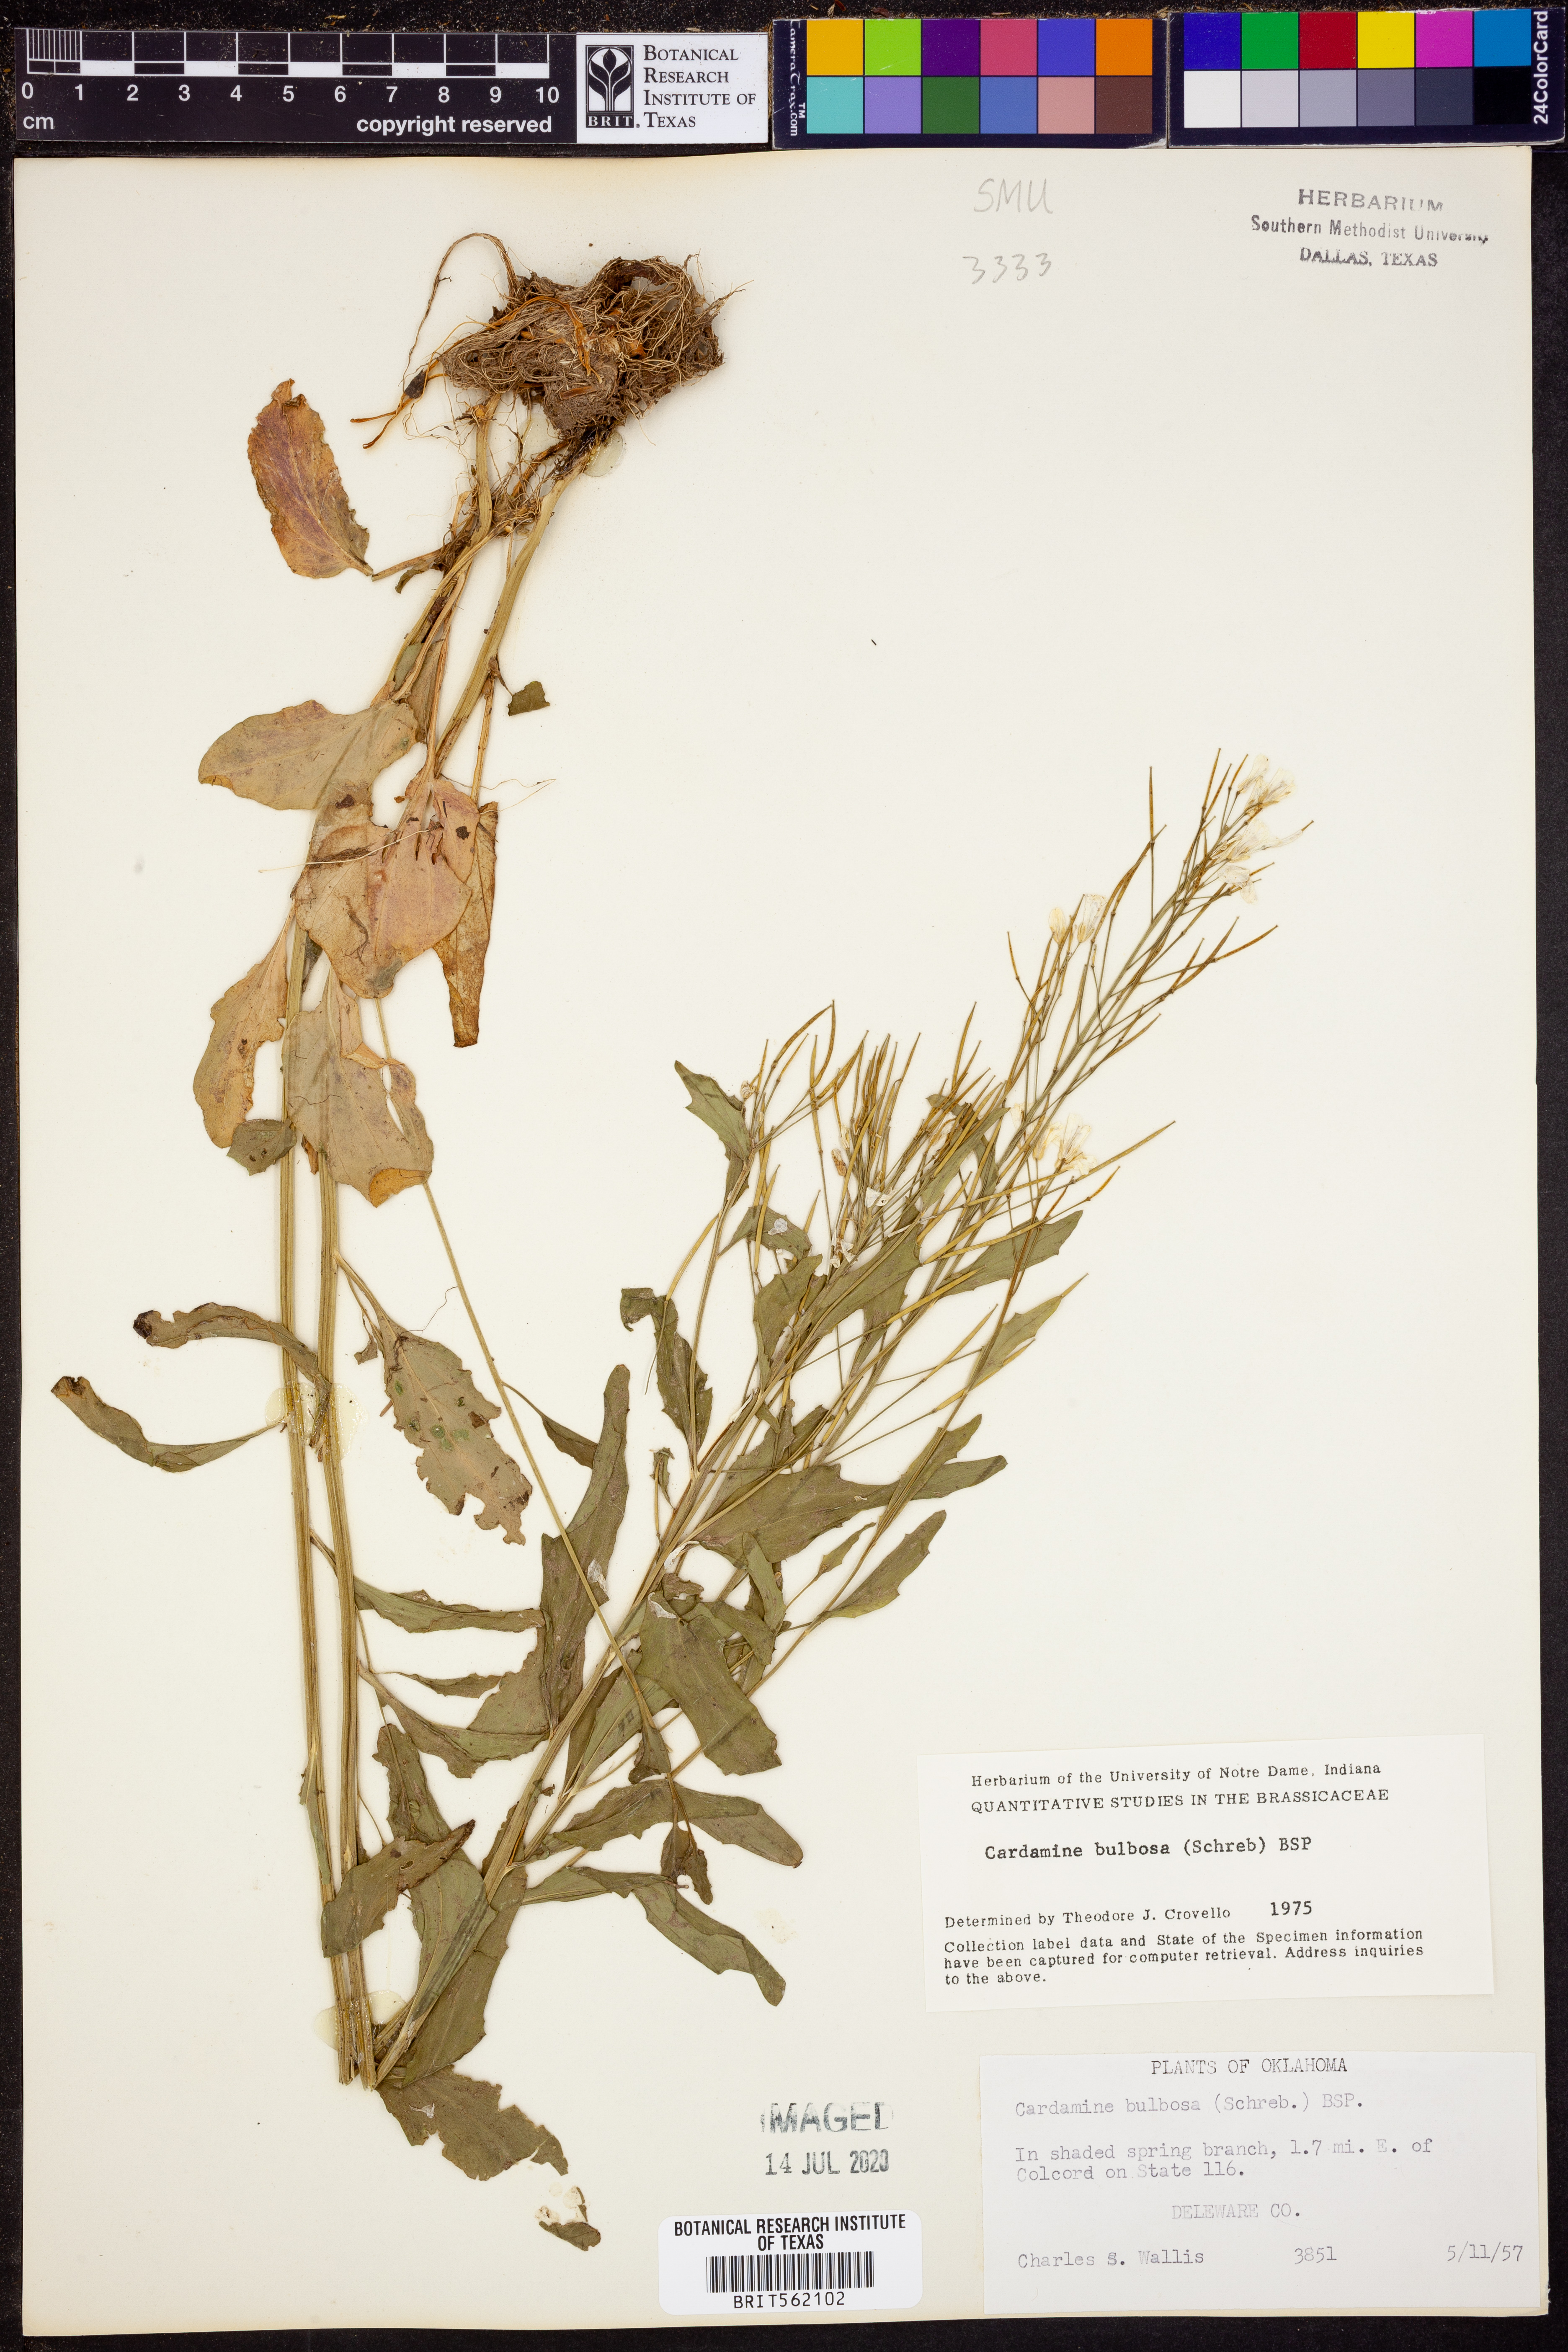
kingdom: Plantae
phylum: Tracheophyta
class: Magnoliopsida
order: Brassicales
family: Brassicaceae
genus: Cardamine
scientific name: Cardamine bulbosa
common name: Spring cress
